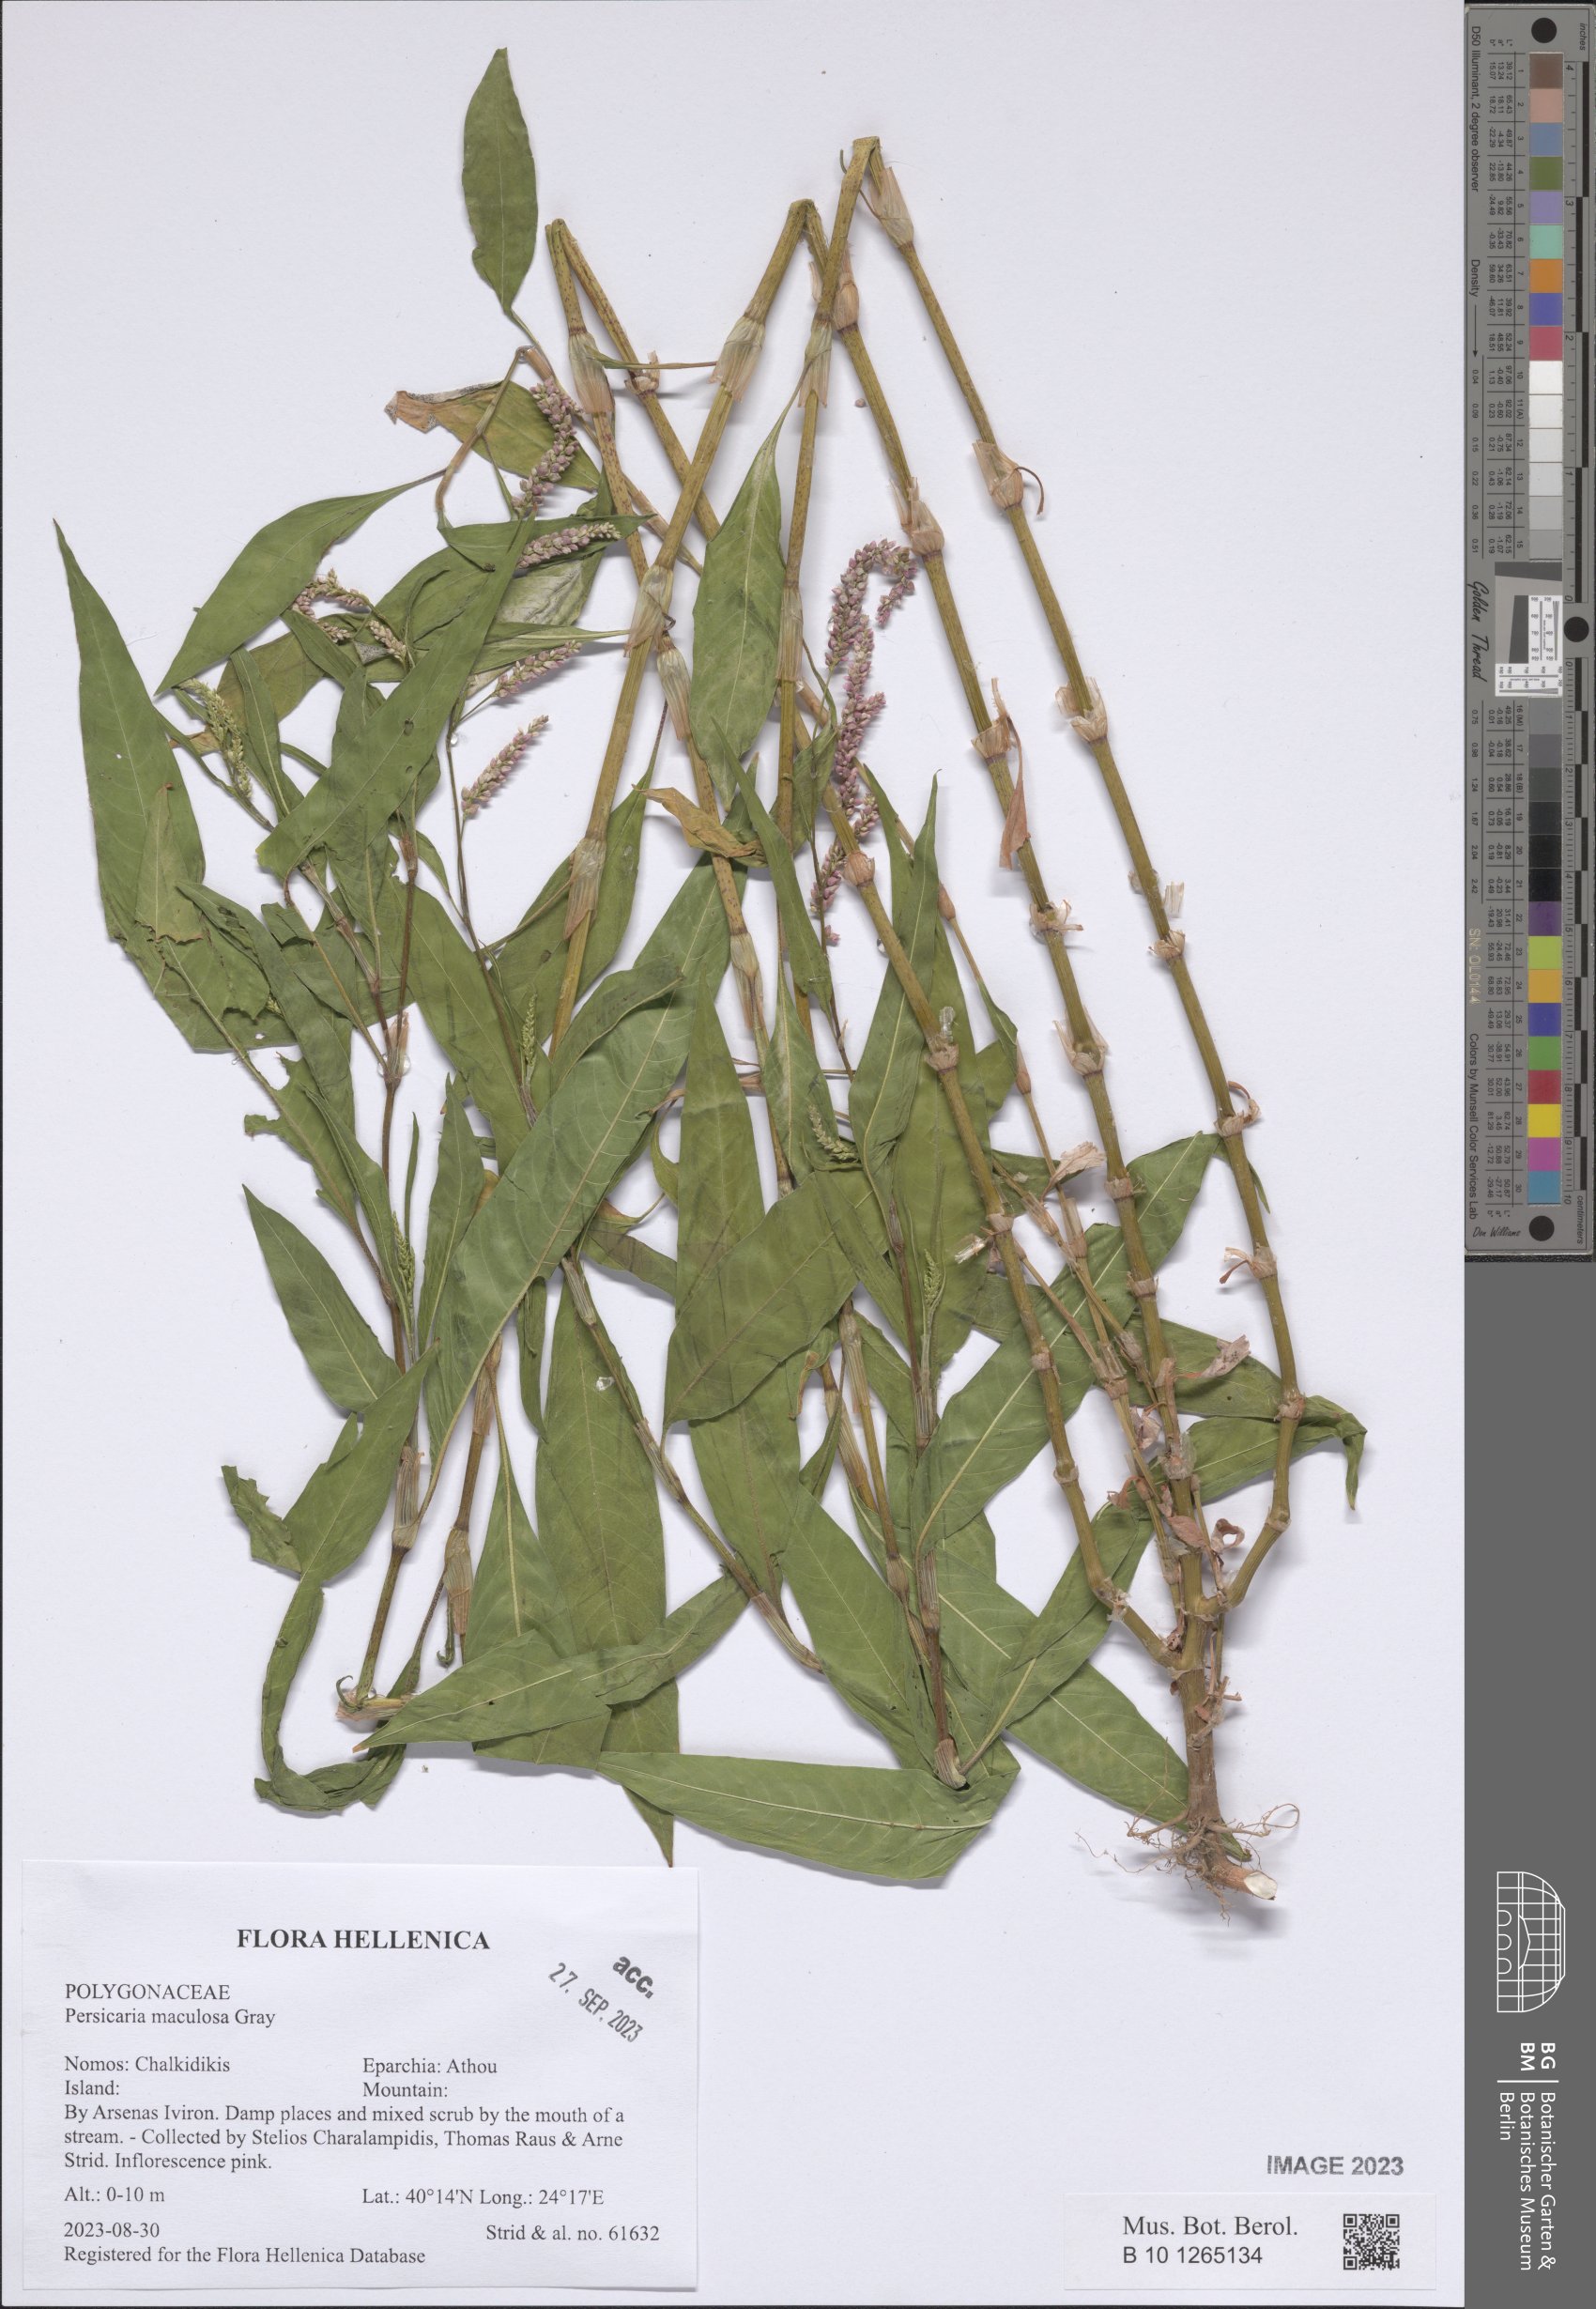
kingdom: Plantae
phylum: Tracheophyta
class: Magnoliopsida
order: Caryophyllales
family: Polygonaceae
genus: Persicaria
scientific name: Persicaria maculosa
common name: Redshank
